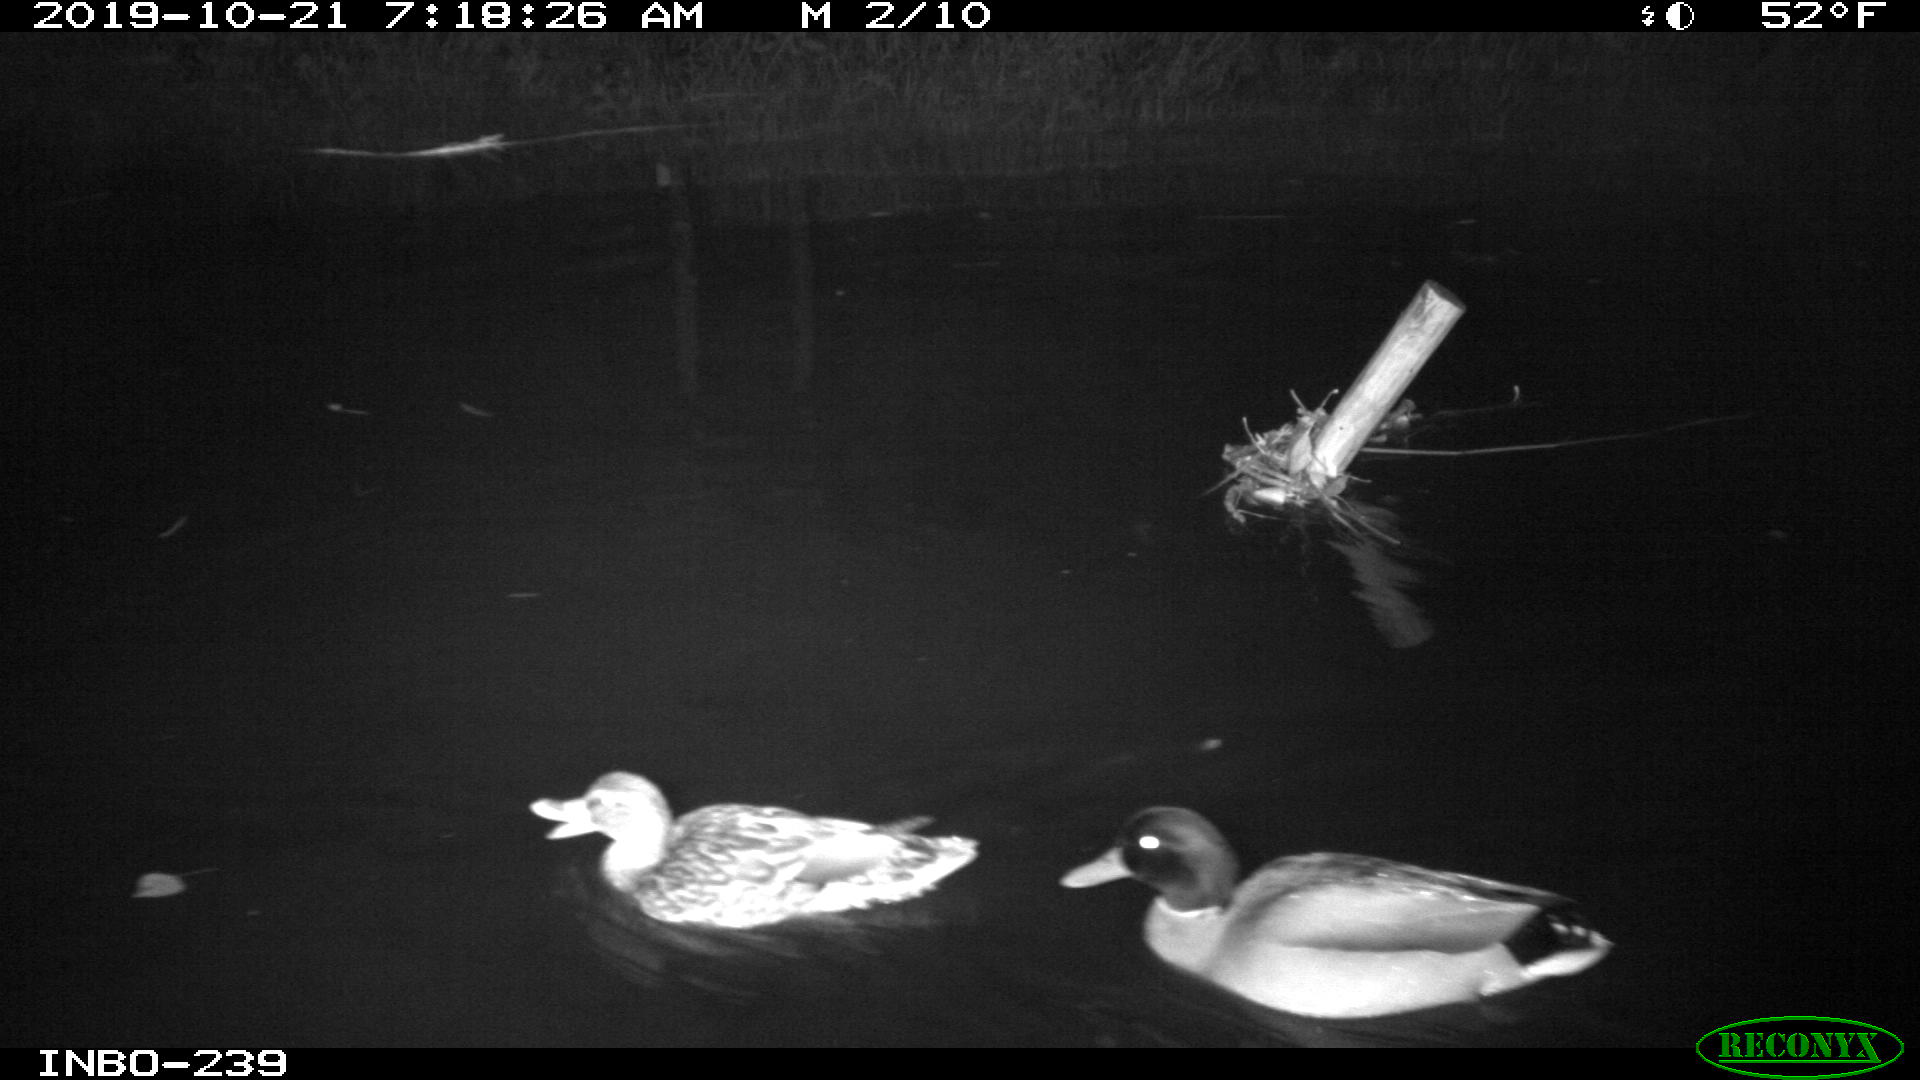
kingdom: Animalia
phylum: Chordata
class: Aves
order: Anseriformes
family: Anatidae
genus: Anas
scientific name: Anas platyrhynchos
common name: Mallard
